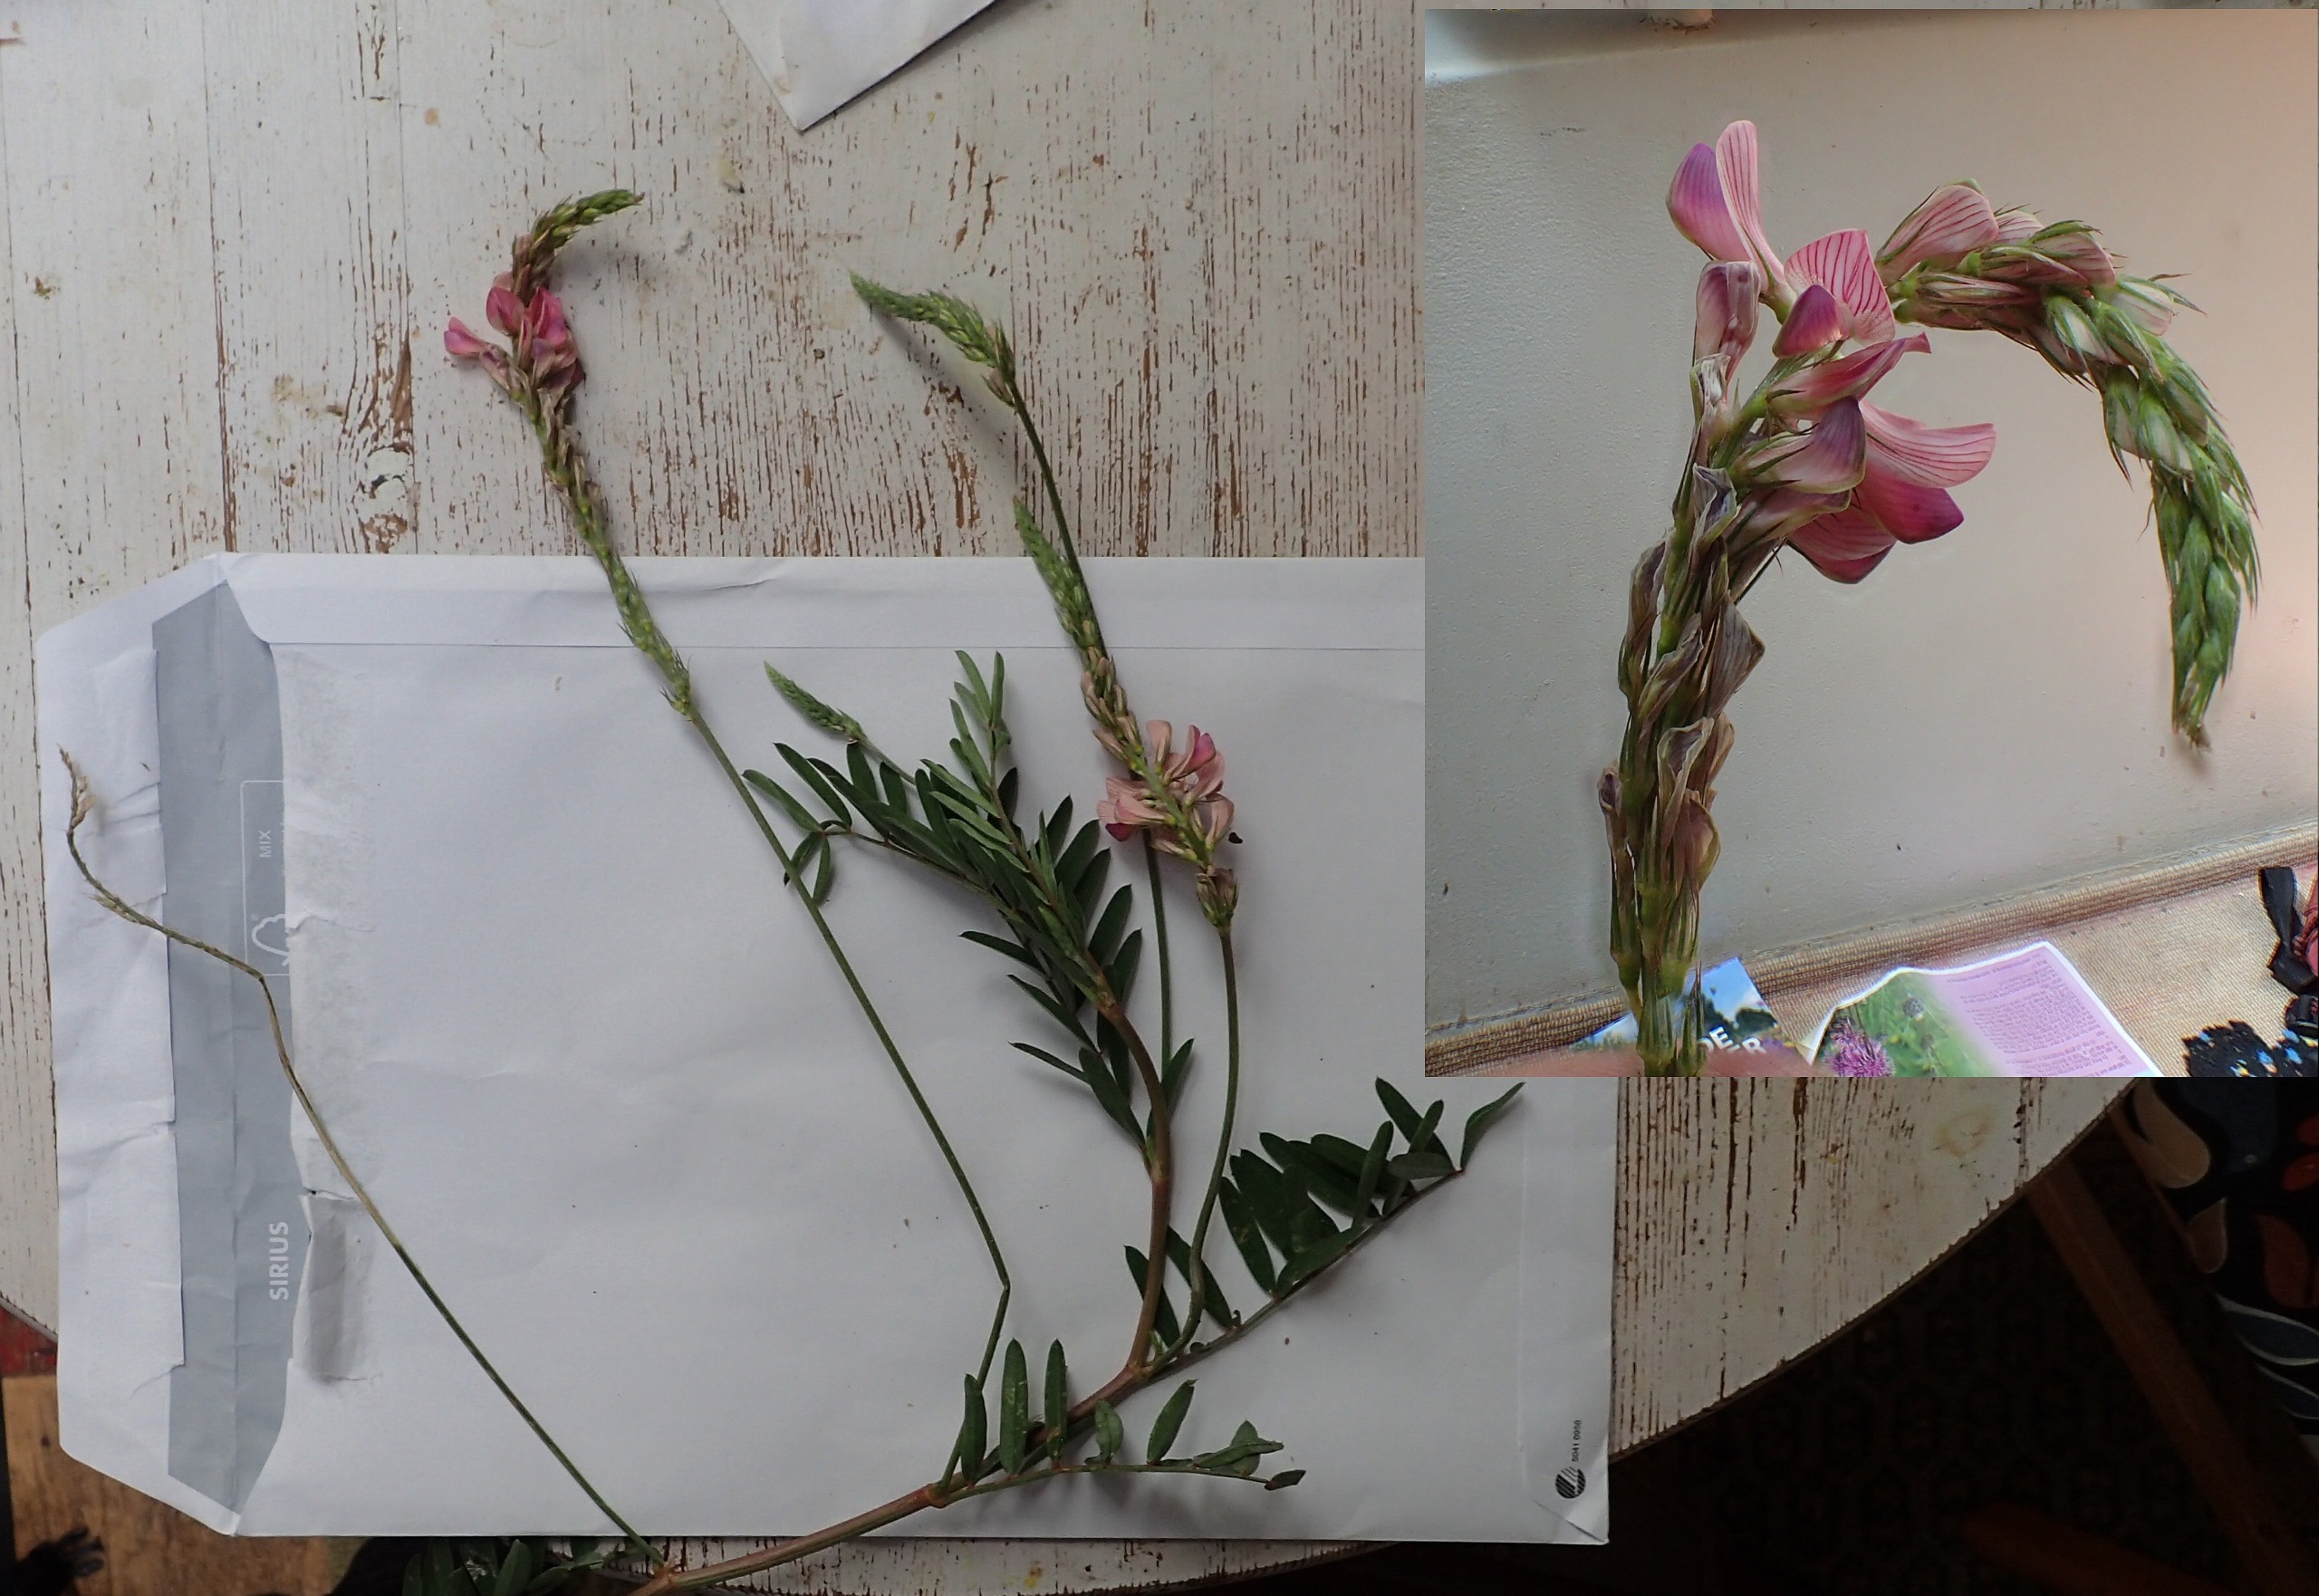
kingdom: Plantae
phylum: Tracheophyta
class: Magnoliopsida
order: Fabales
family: Fabaceae
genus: Onobrychis
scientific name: Onobrychis viciifolia
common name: Esparsette
